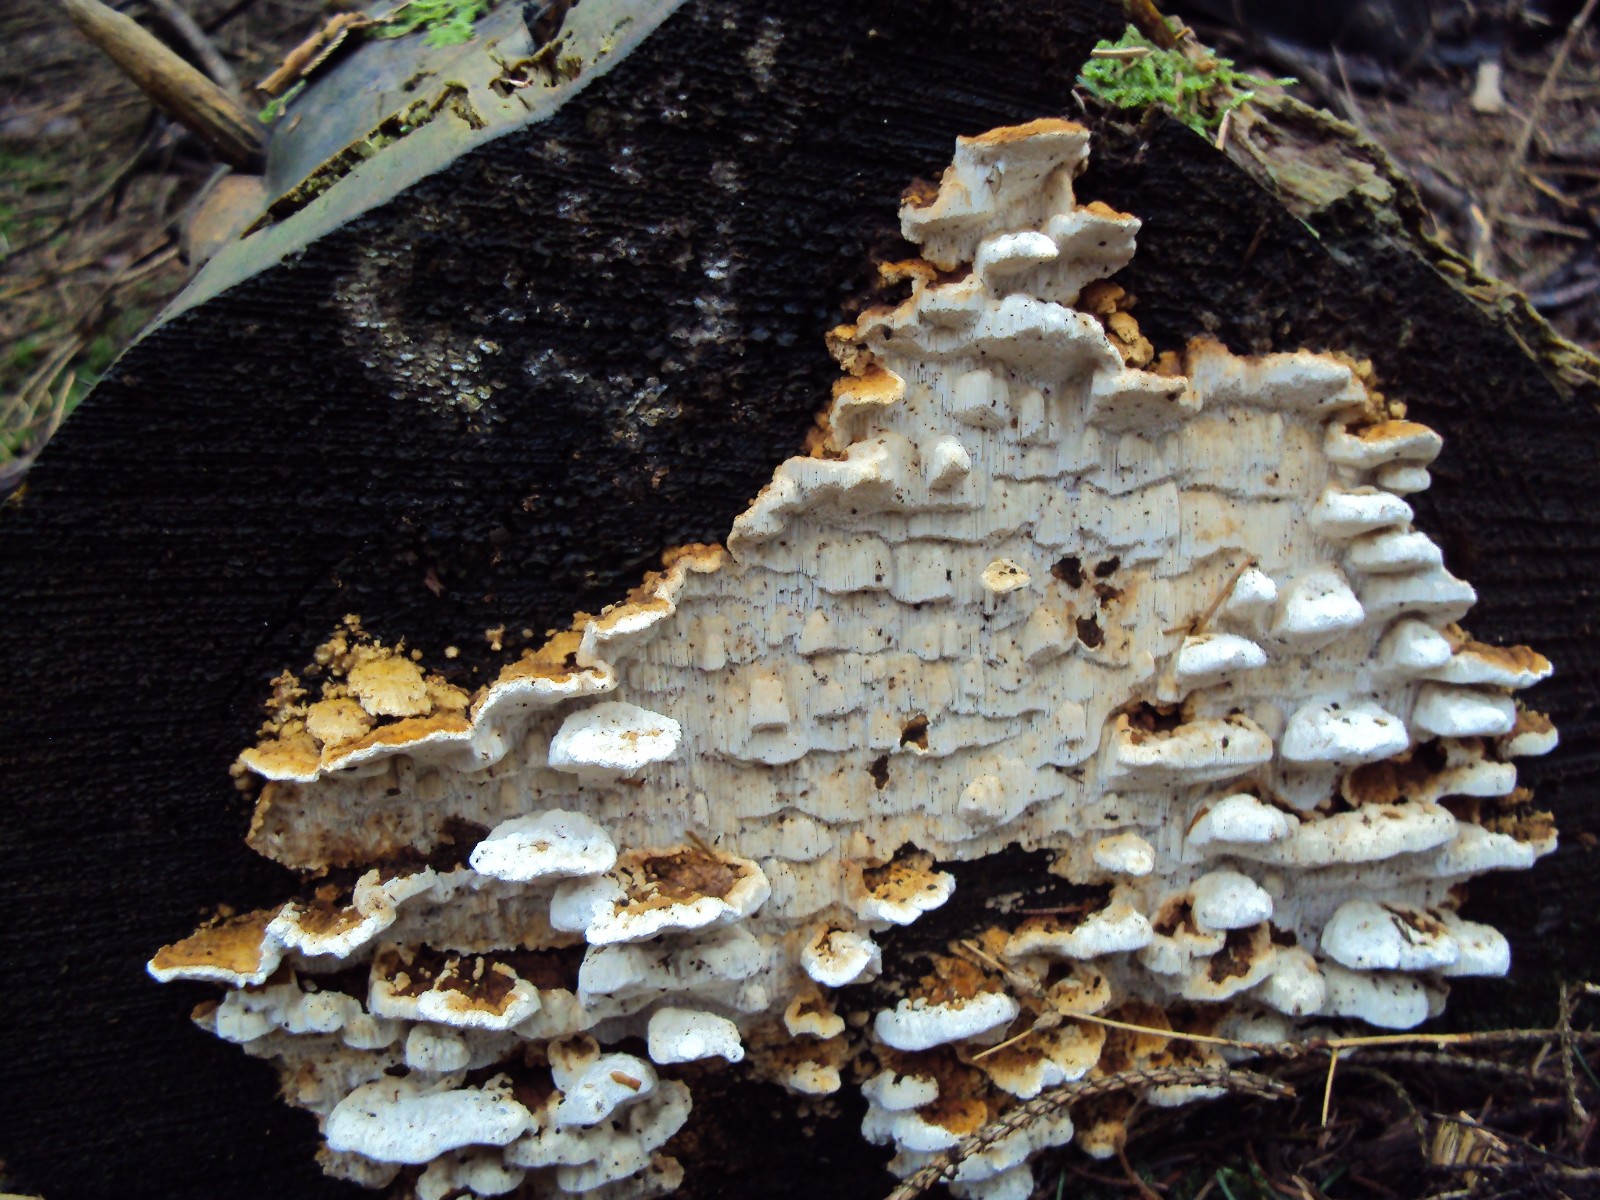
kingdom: Fungi
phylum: Basidiomycota
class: Agaricomycetes
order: Polyporales
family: Fomitopsidaceae
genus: Neoantrodia
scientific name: Neoantrodia serialis
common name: række-sejporesvamp
